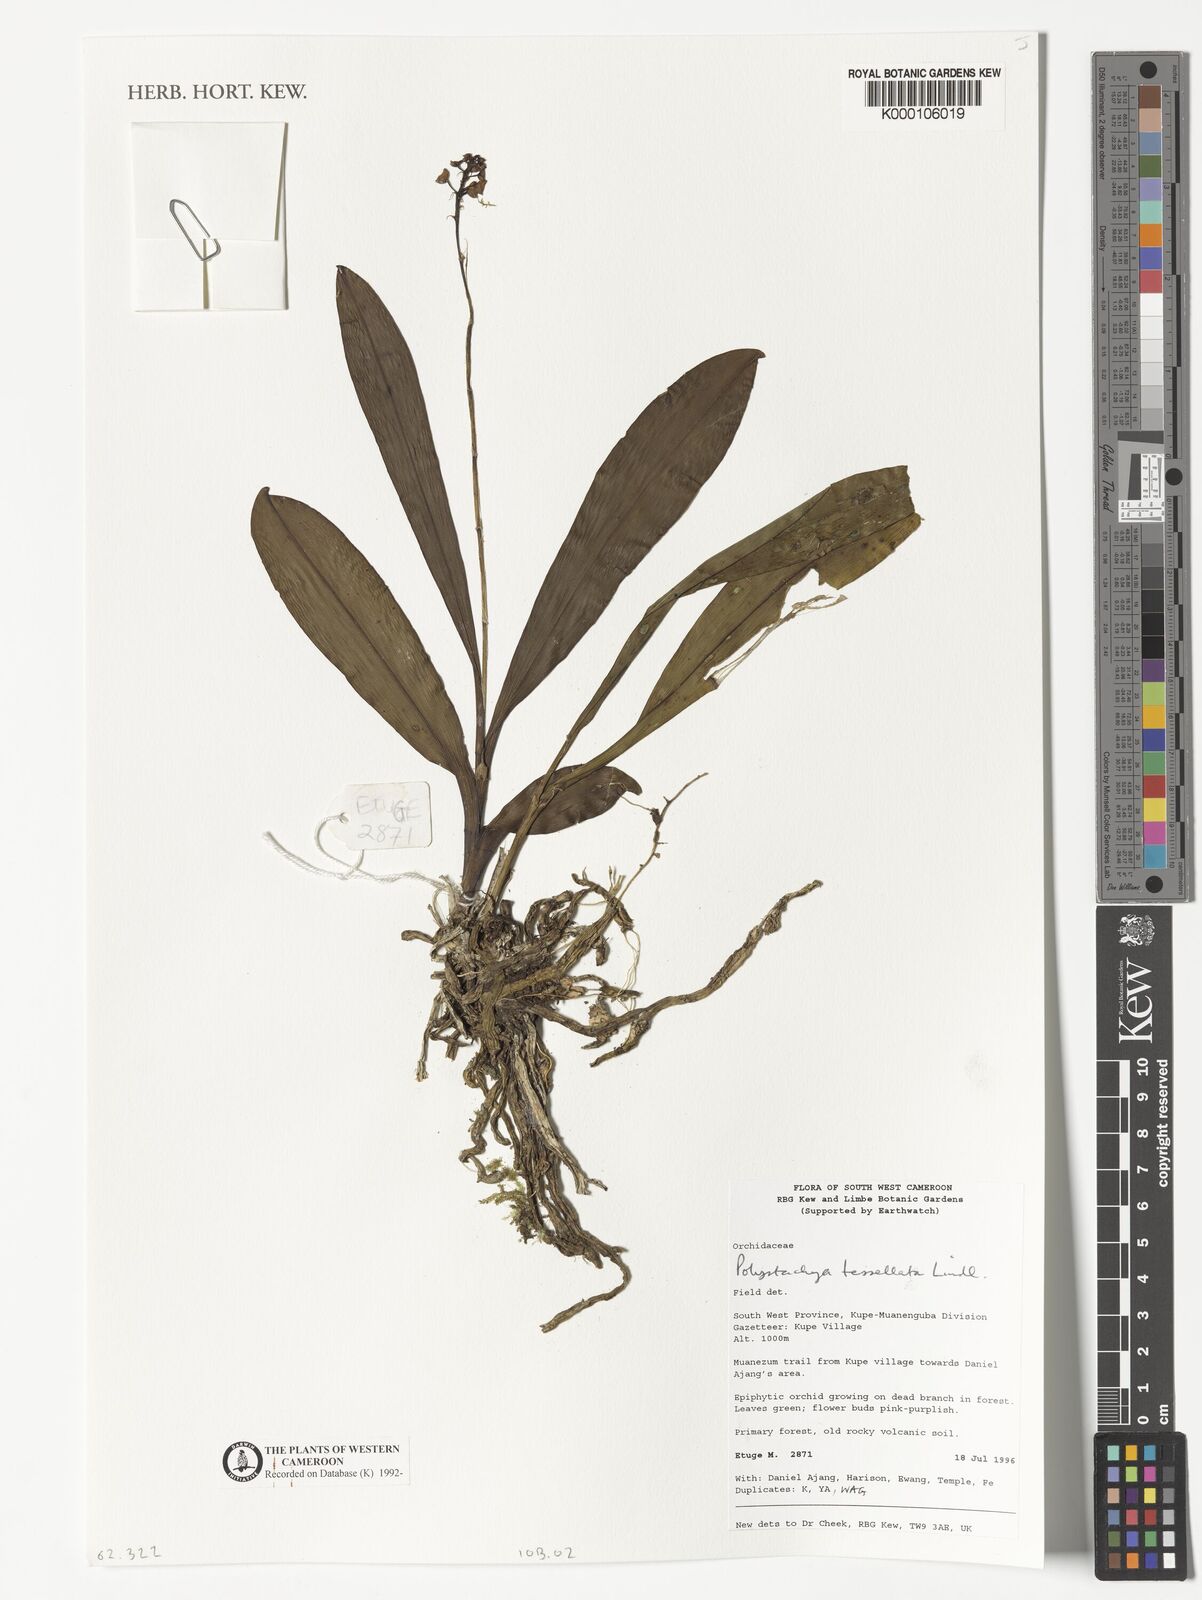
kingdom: Plantae
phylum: Tracheophyta
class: Liliopsida
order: Asparagales
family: Orchidaceae
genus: Polystachya
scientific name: Polystachya concreta
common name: Greater yellowspike orchid
